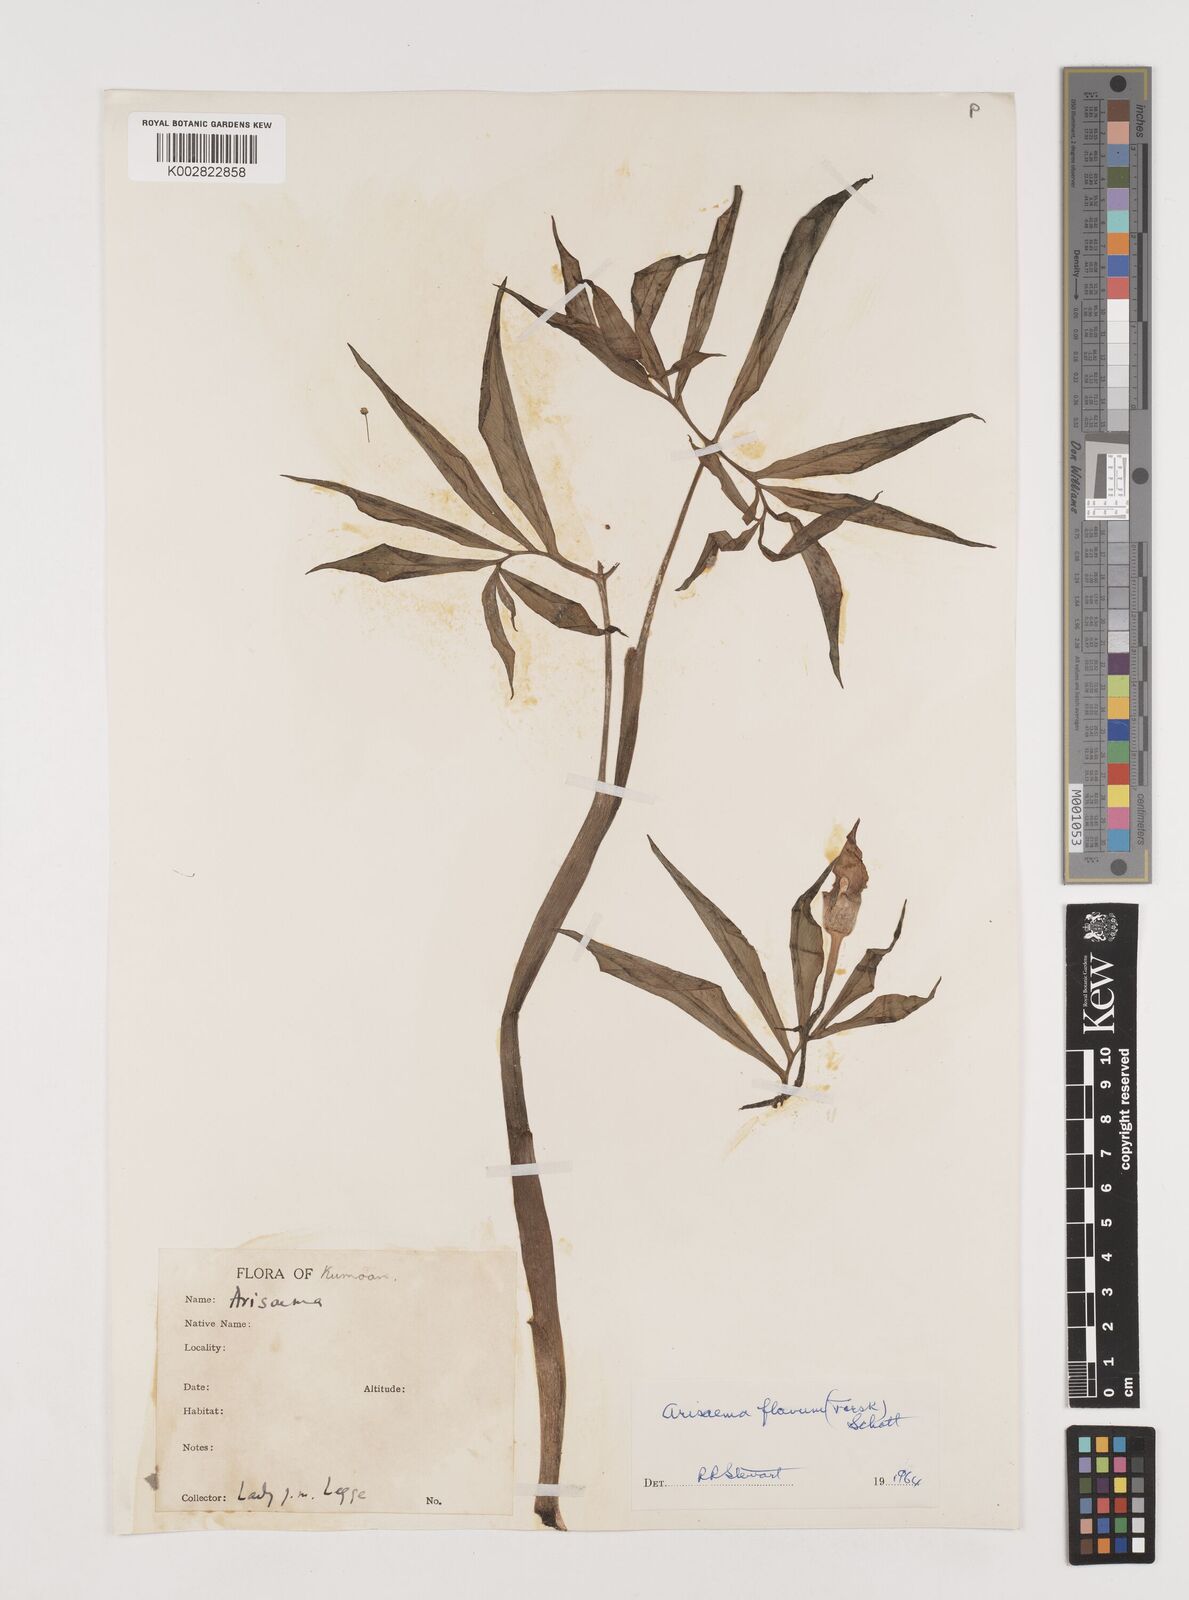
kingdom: Plantae
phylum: Tracheophyta
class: Liliopsida
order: Alismatales
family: Araceae
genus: Arisaema
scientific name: Arisaema flavum
